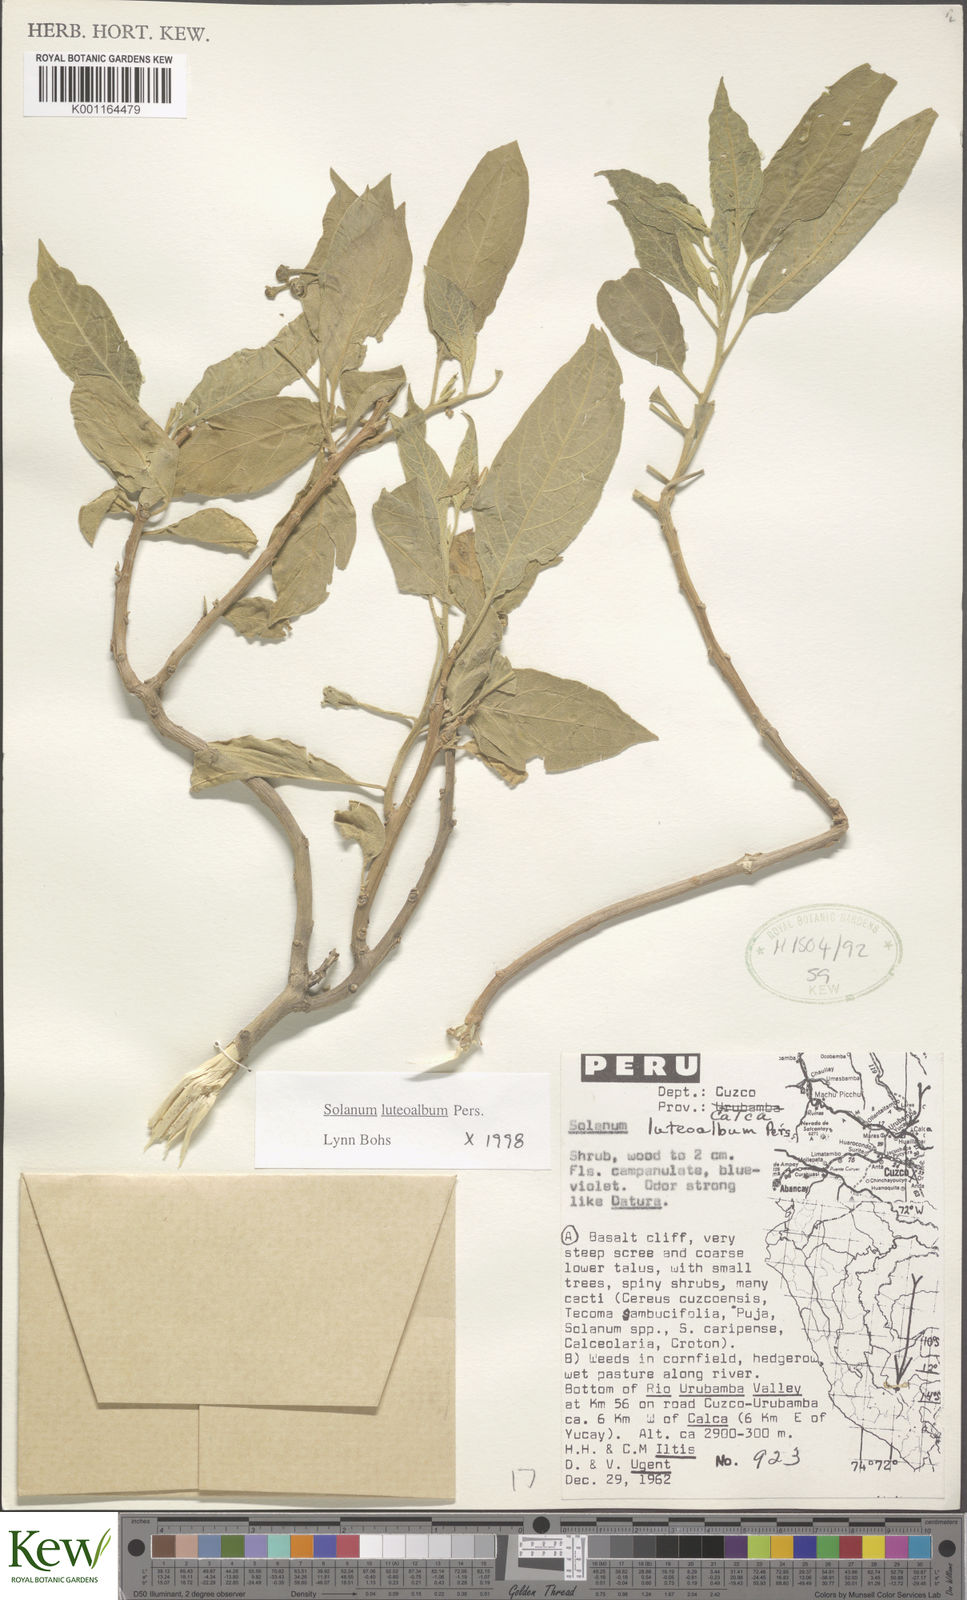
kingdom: Plantae
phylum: Tracheophyta
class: Magnoliopsida
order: Solanales
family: Solanaceae
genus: Solanum
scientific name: Solanum luteoalbum
